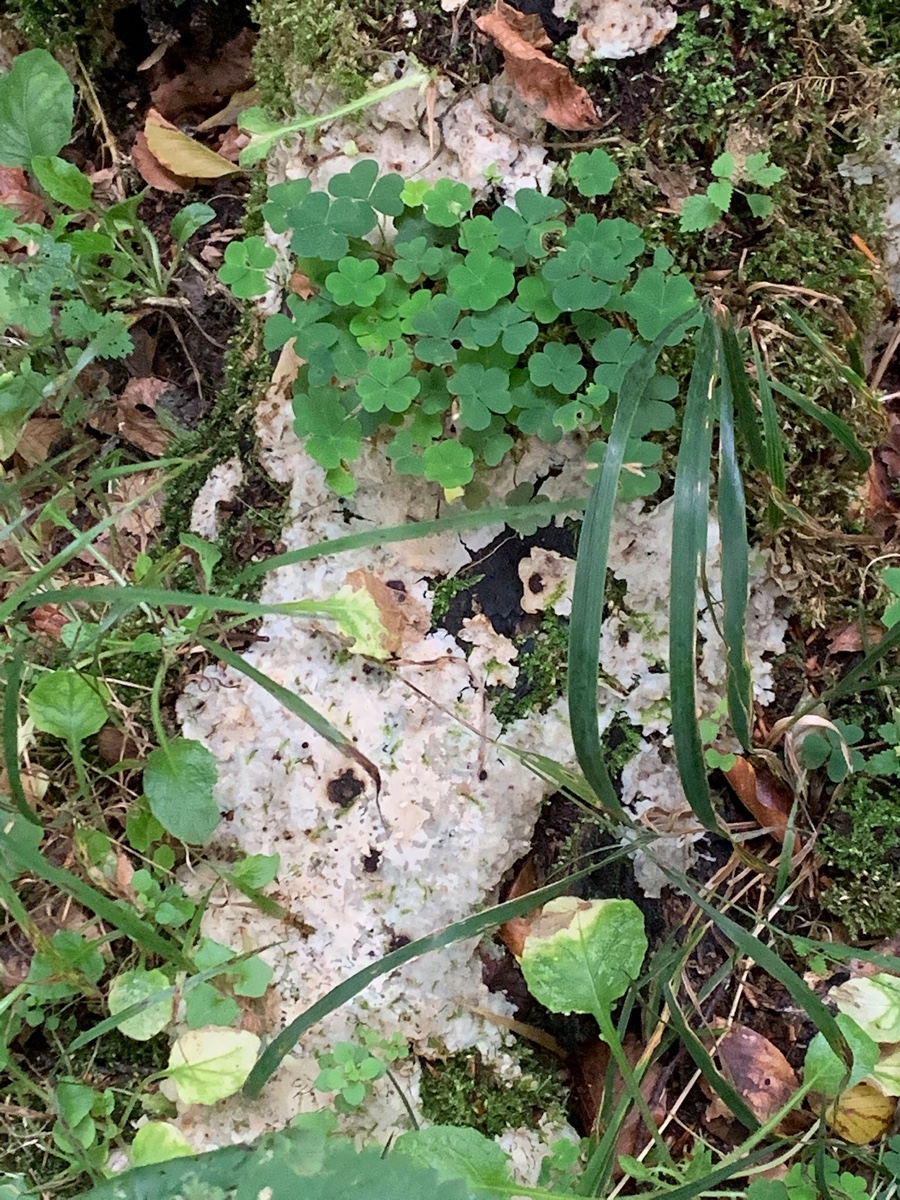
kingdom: Fungi
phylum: Basidiomycota
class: Agaricomycetes
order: Polyporales
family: Meruliaceae
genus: Physisporinus
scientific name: Physisporinus vitreus
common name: mastesvamp
